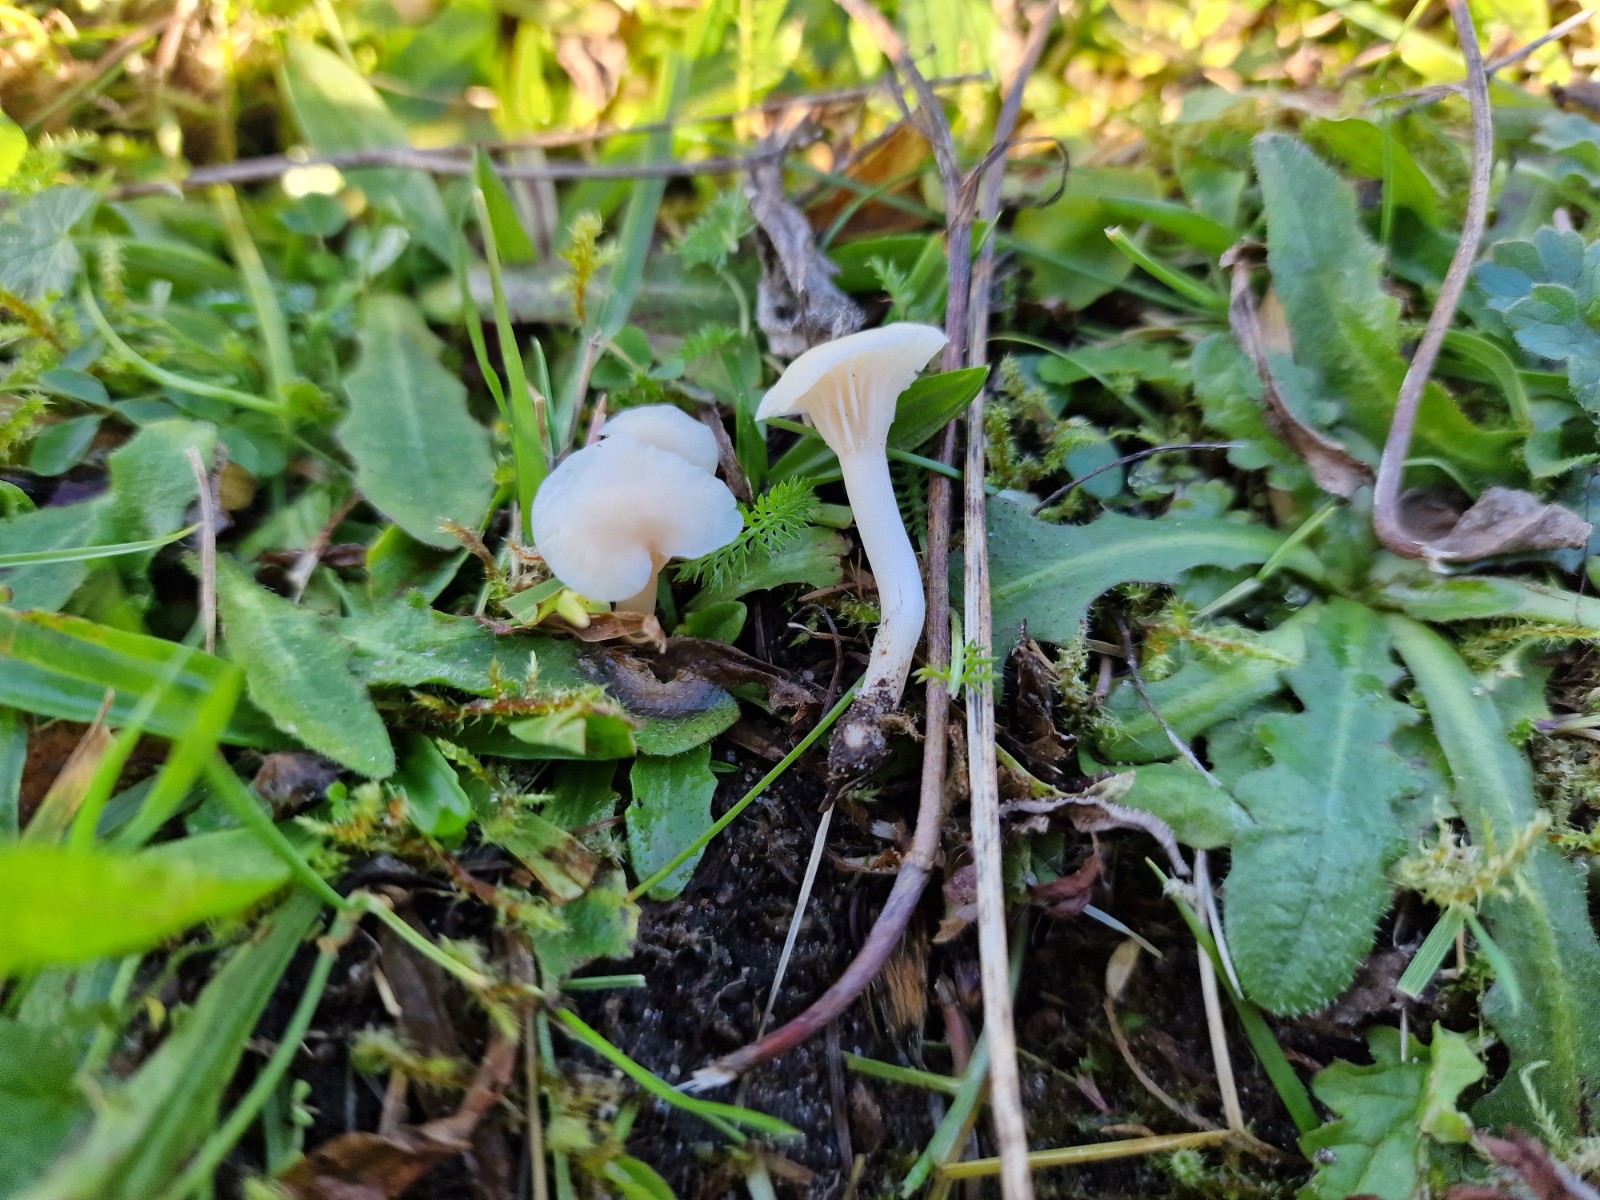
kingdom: Fungi
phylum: Basidiomycota
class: Agaricomycetes
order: Agaricales
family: Hygrophoraceae
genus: Cuphophyllus
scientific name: Cuphophyllus
